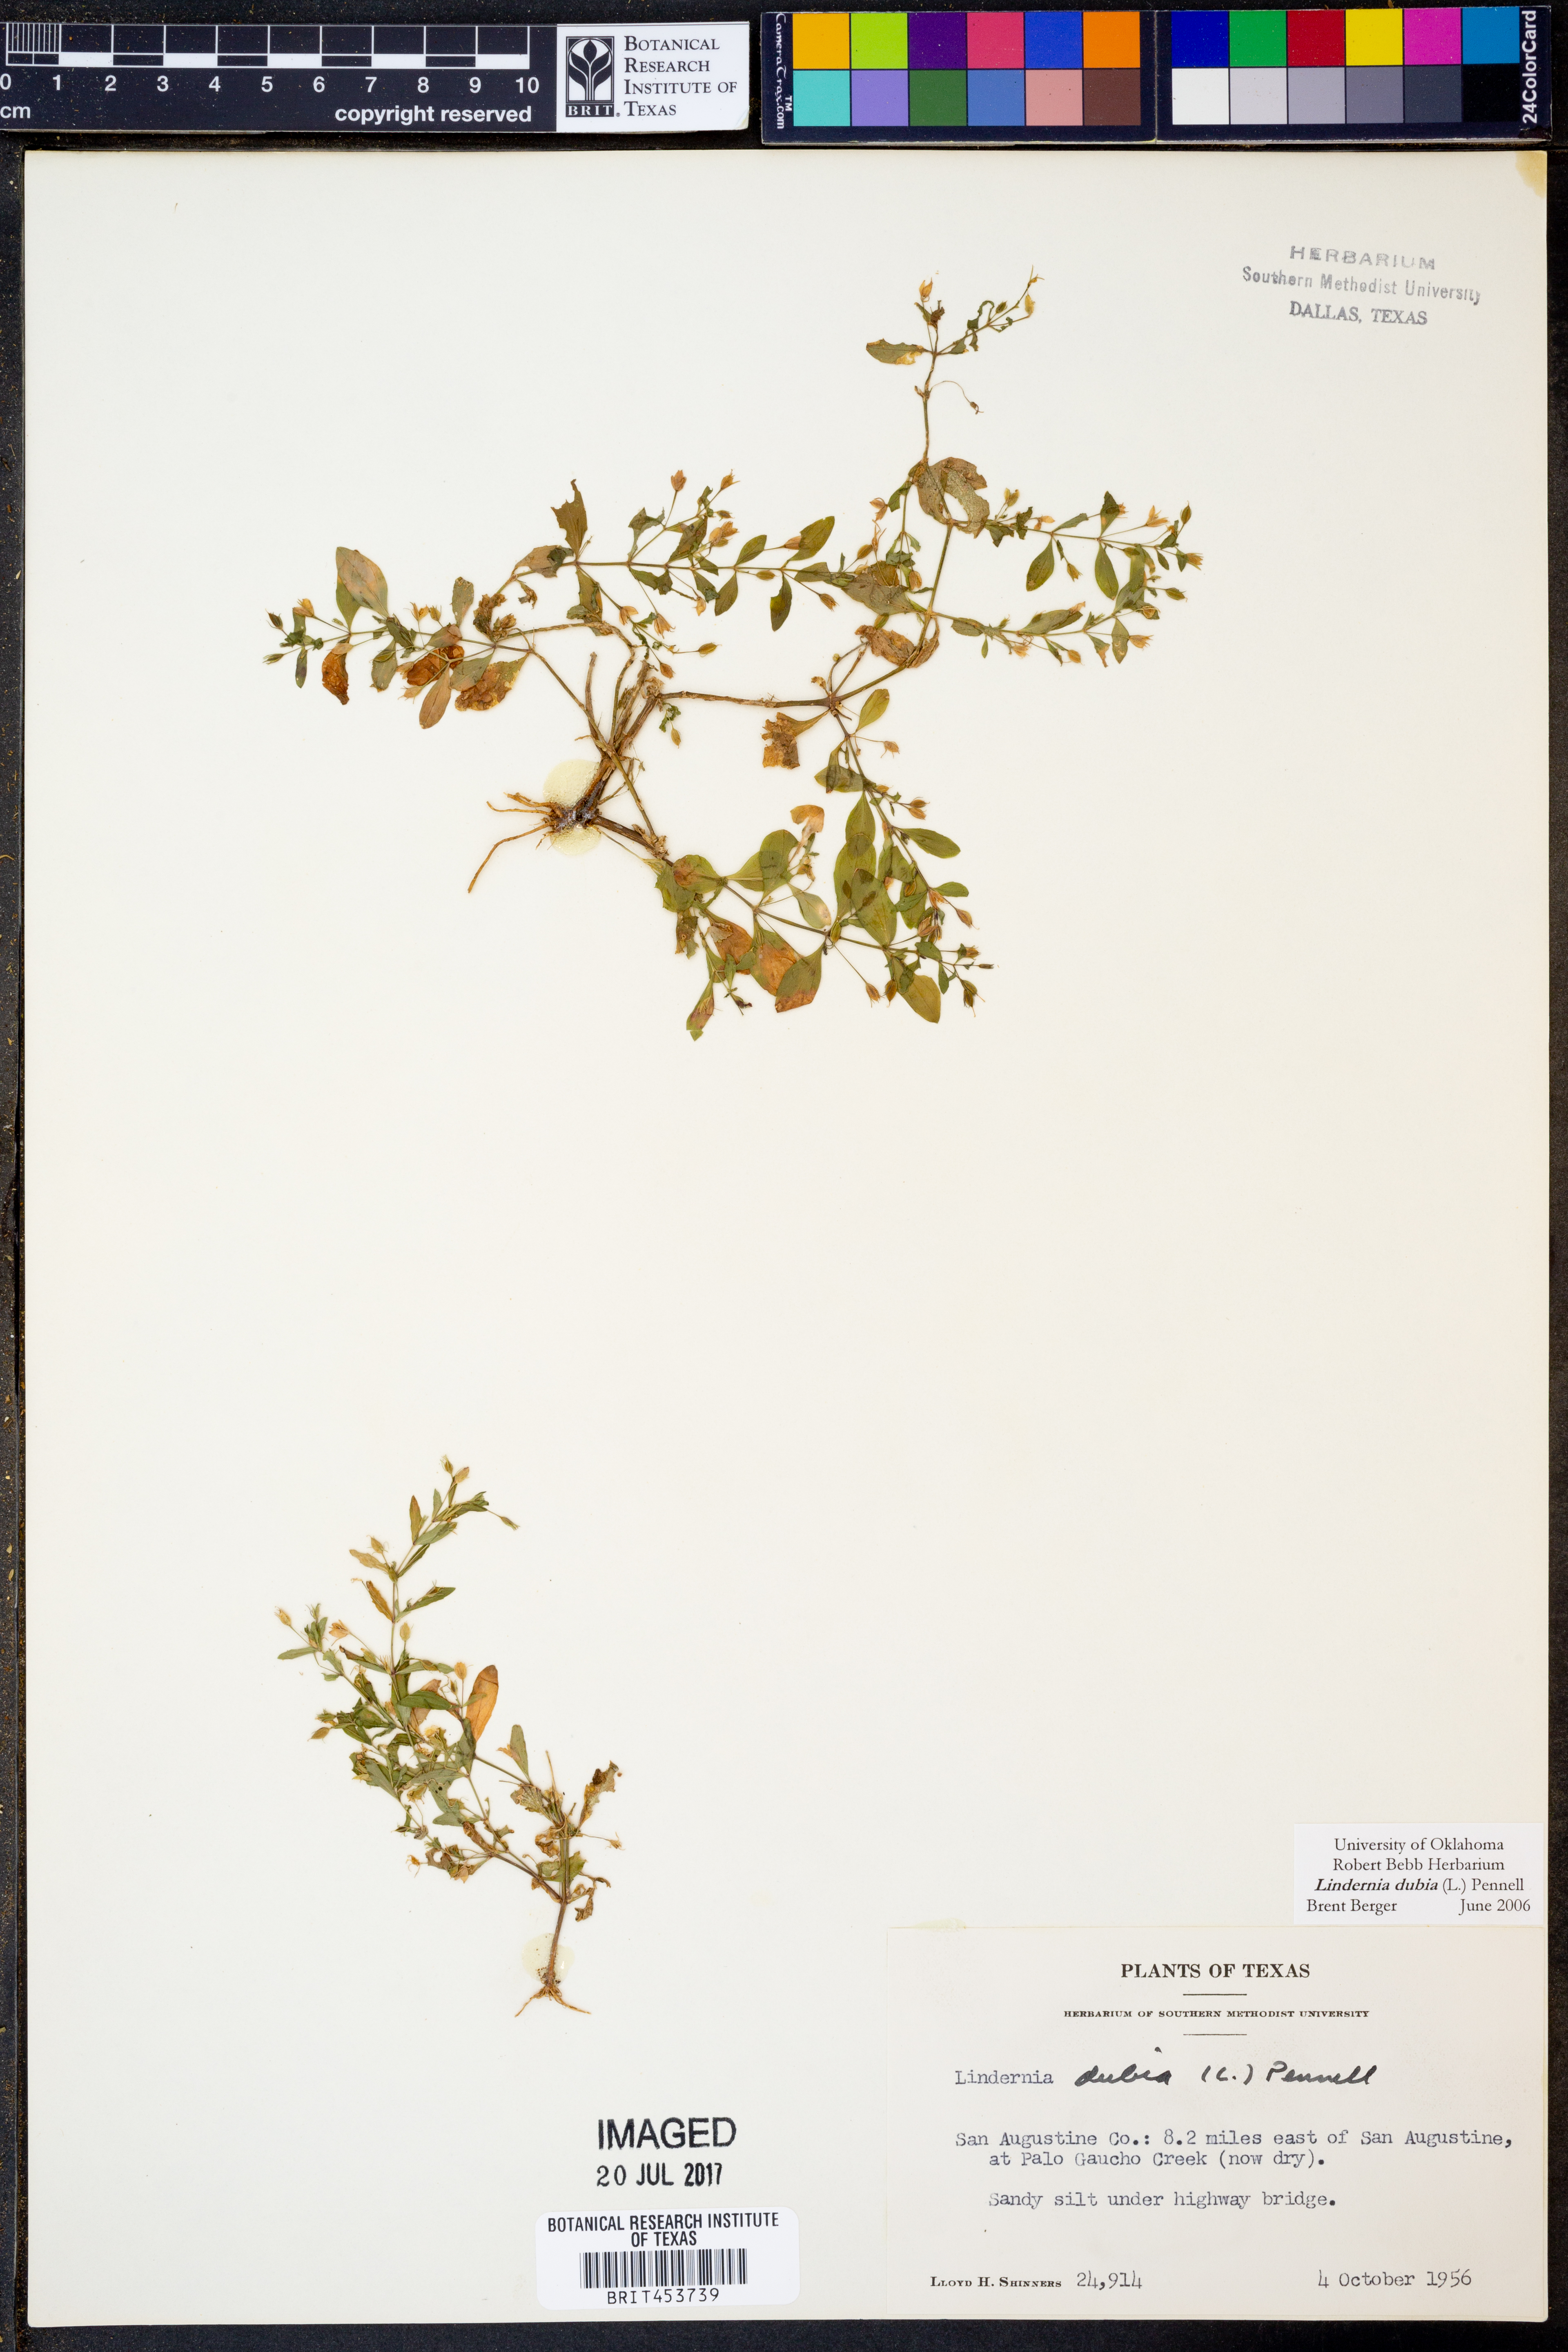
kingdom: Plantae
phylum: Tracheophyta
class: Magnoliopsida
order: Lamiales
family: Linderniaceae
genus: Lindernia
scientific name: Lindernia dubia
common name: Annual false pimpernel
